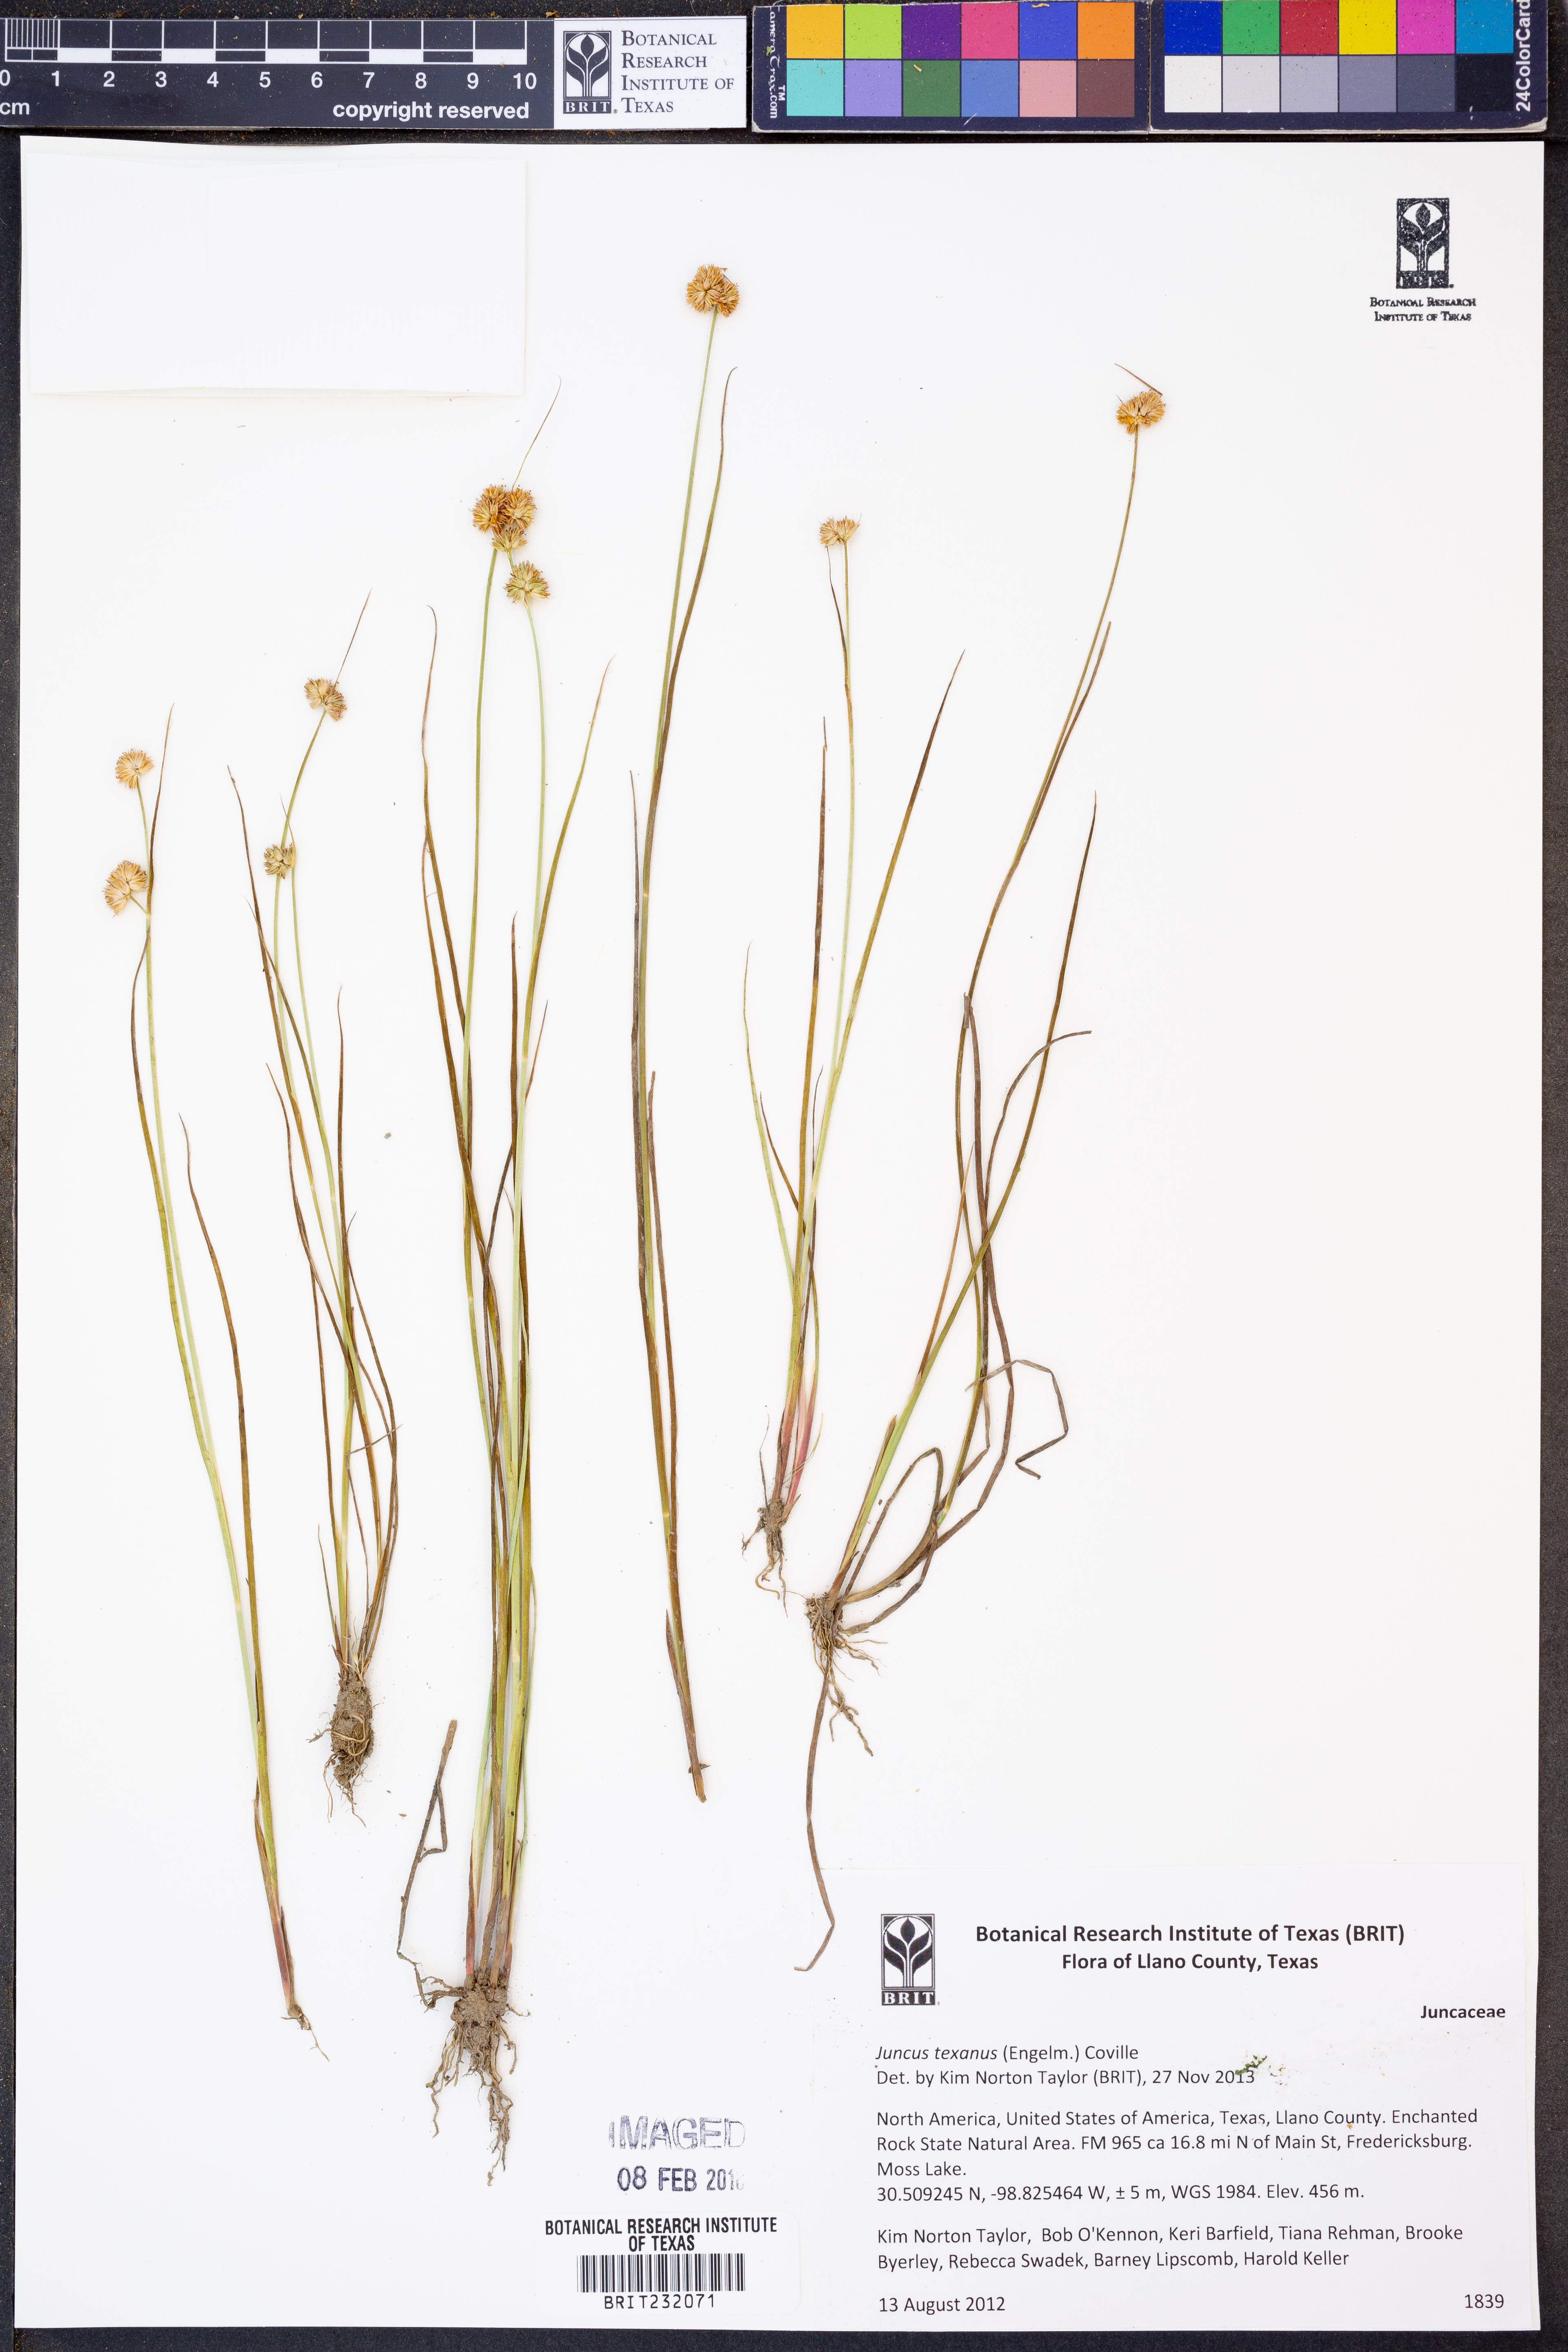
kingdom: Plantae
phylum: Tracheophyta
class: Liliopsida
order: Poales
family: Juncaceae
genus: Juncus
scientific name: Juncus texanus
